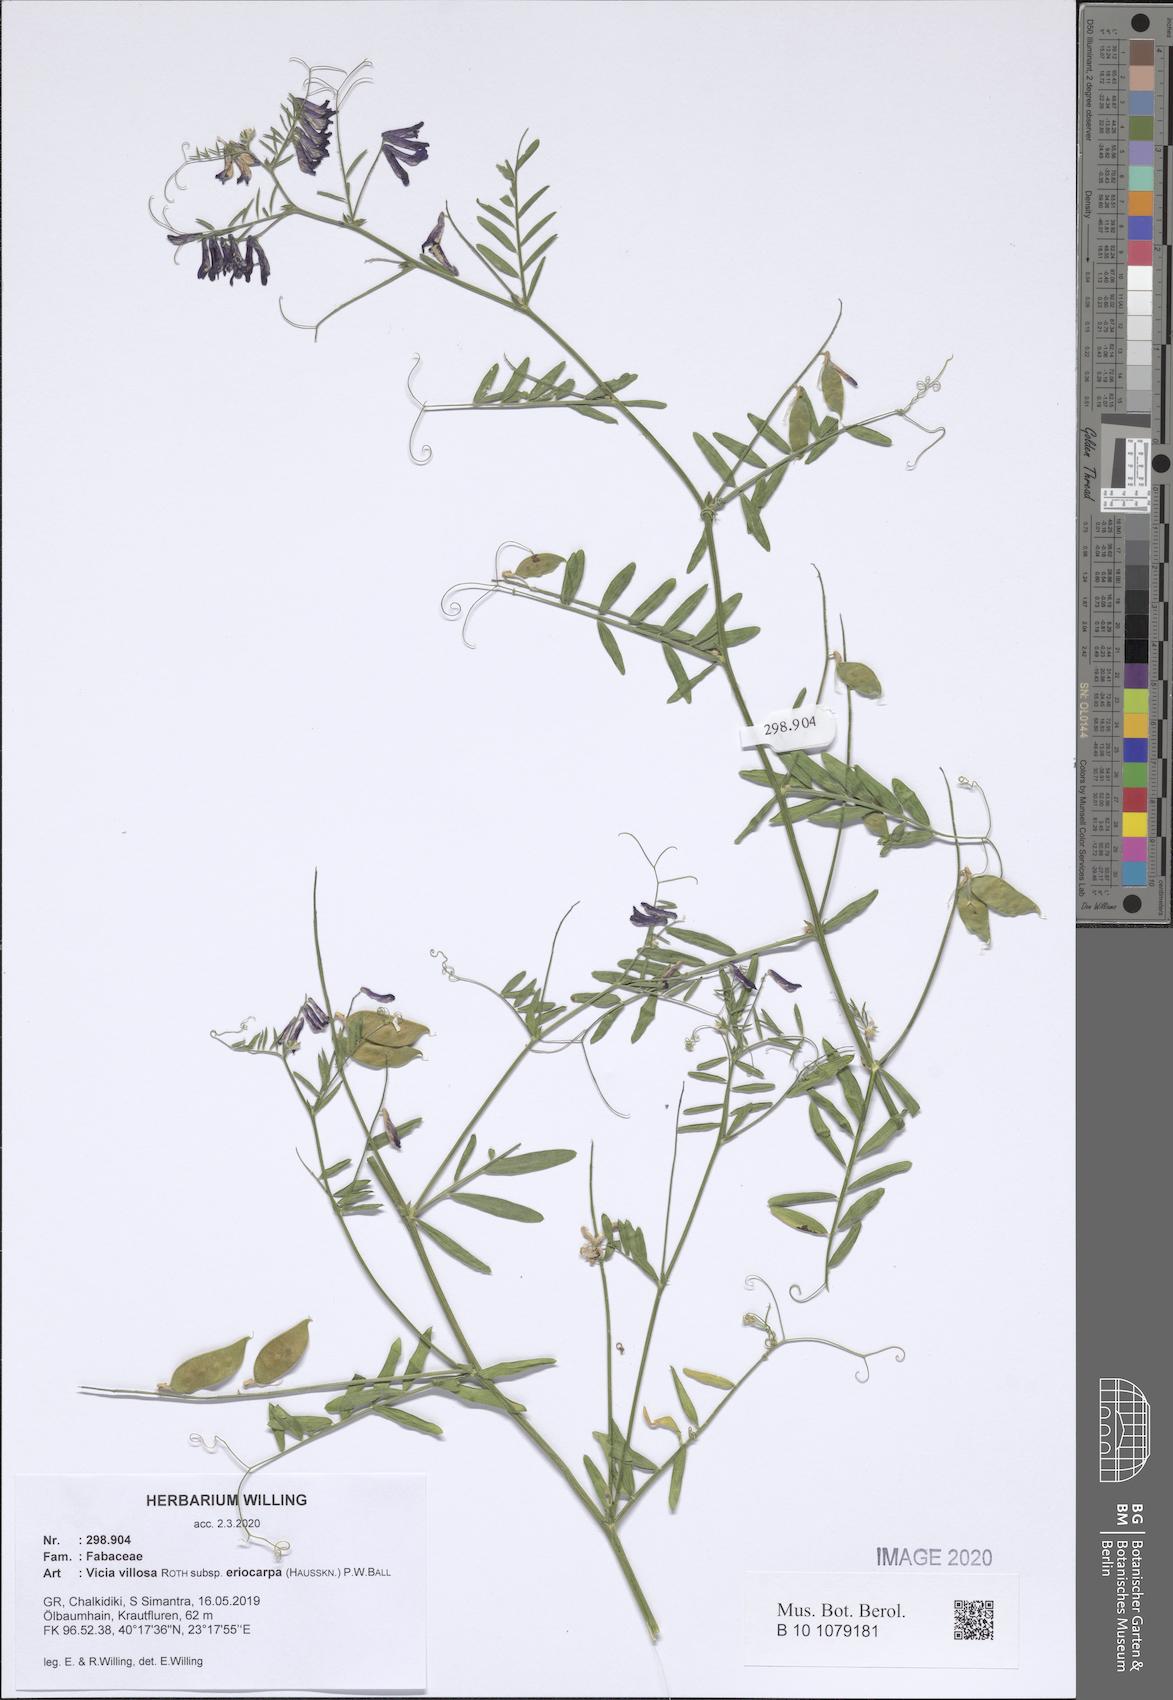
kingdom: Plantae
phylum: Tracheophyta
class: Magnoliopsida
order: Fabales
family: Fabaceae
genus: Vicia
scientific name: Vicia eriocarpa
